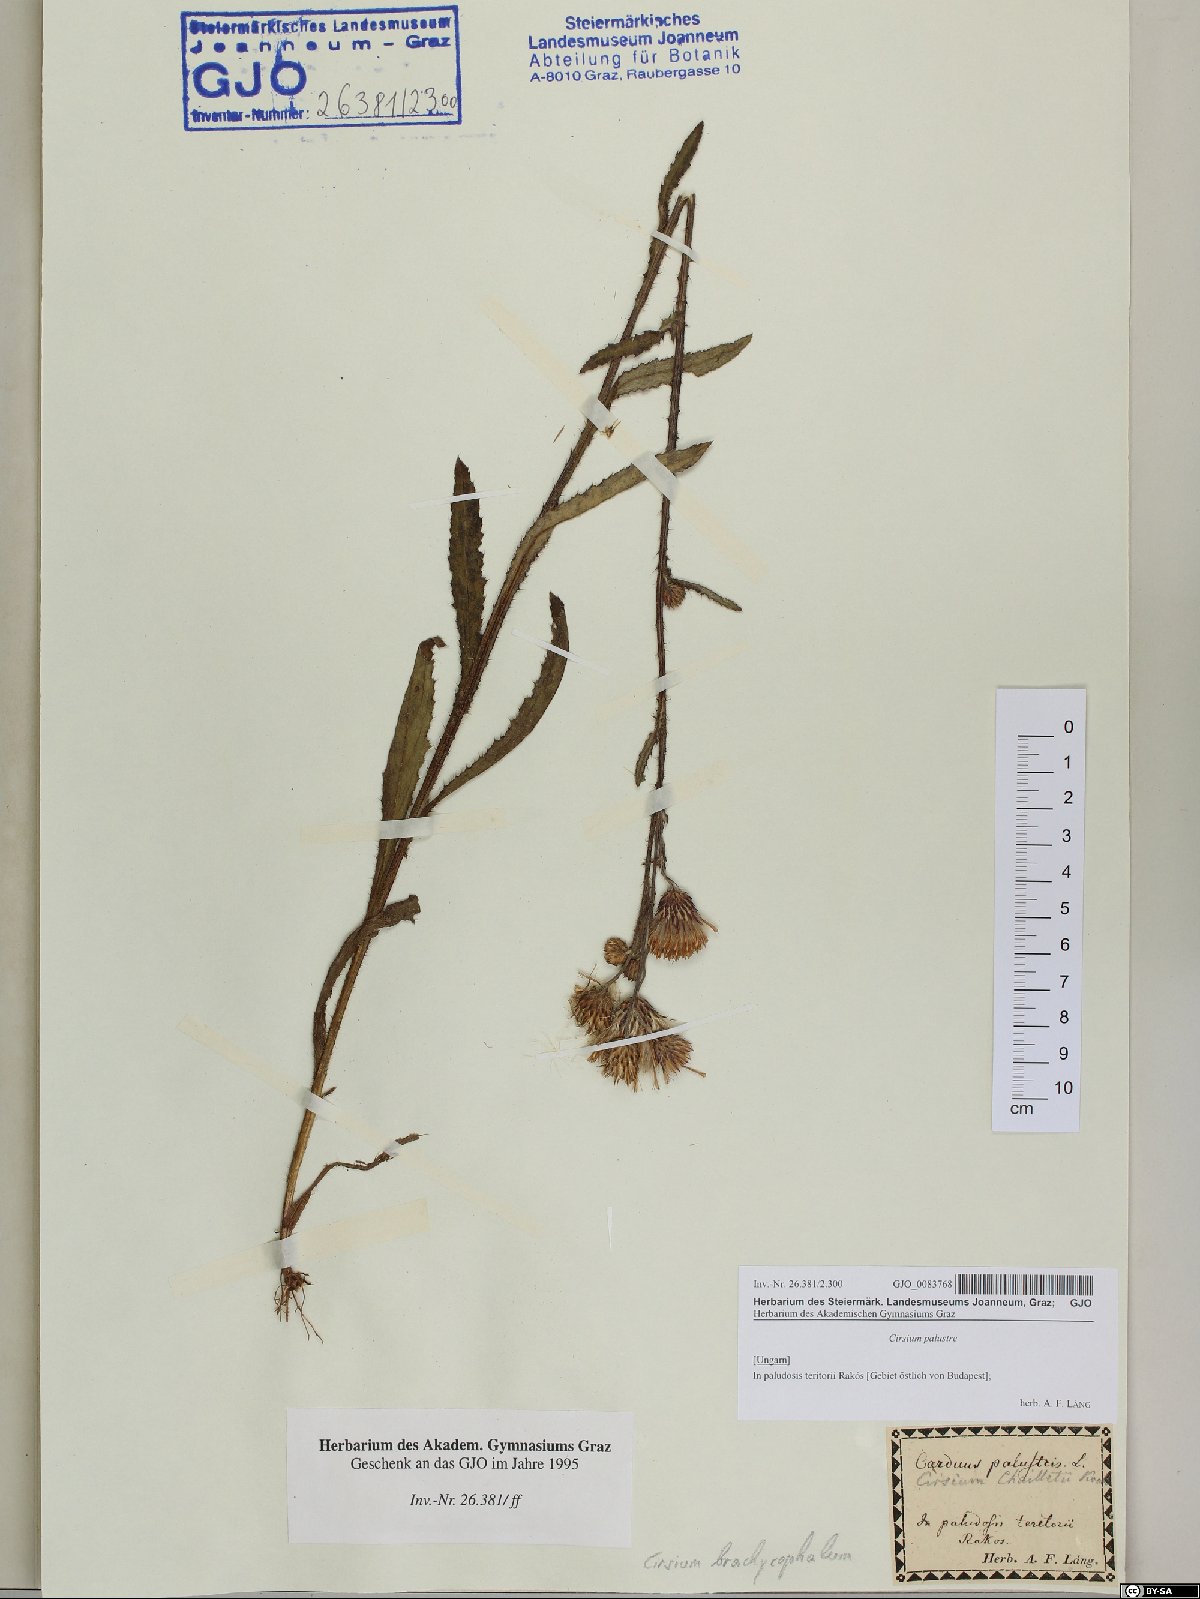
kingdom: Plantae
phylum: Tracheophyta
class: Magnoliopsida
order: Asterales
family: Asteraceae
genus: Cirsium
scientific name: Cirsium palustre
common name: Marsh thistle
